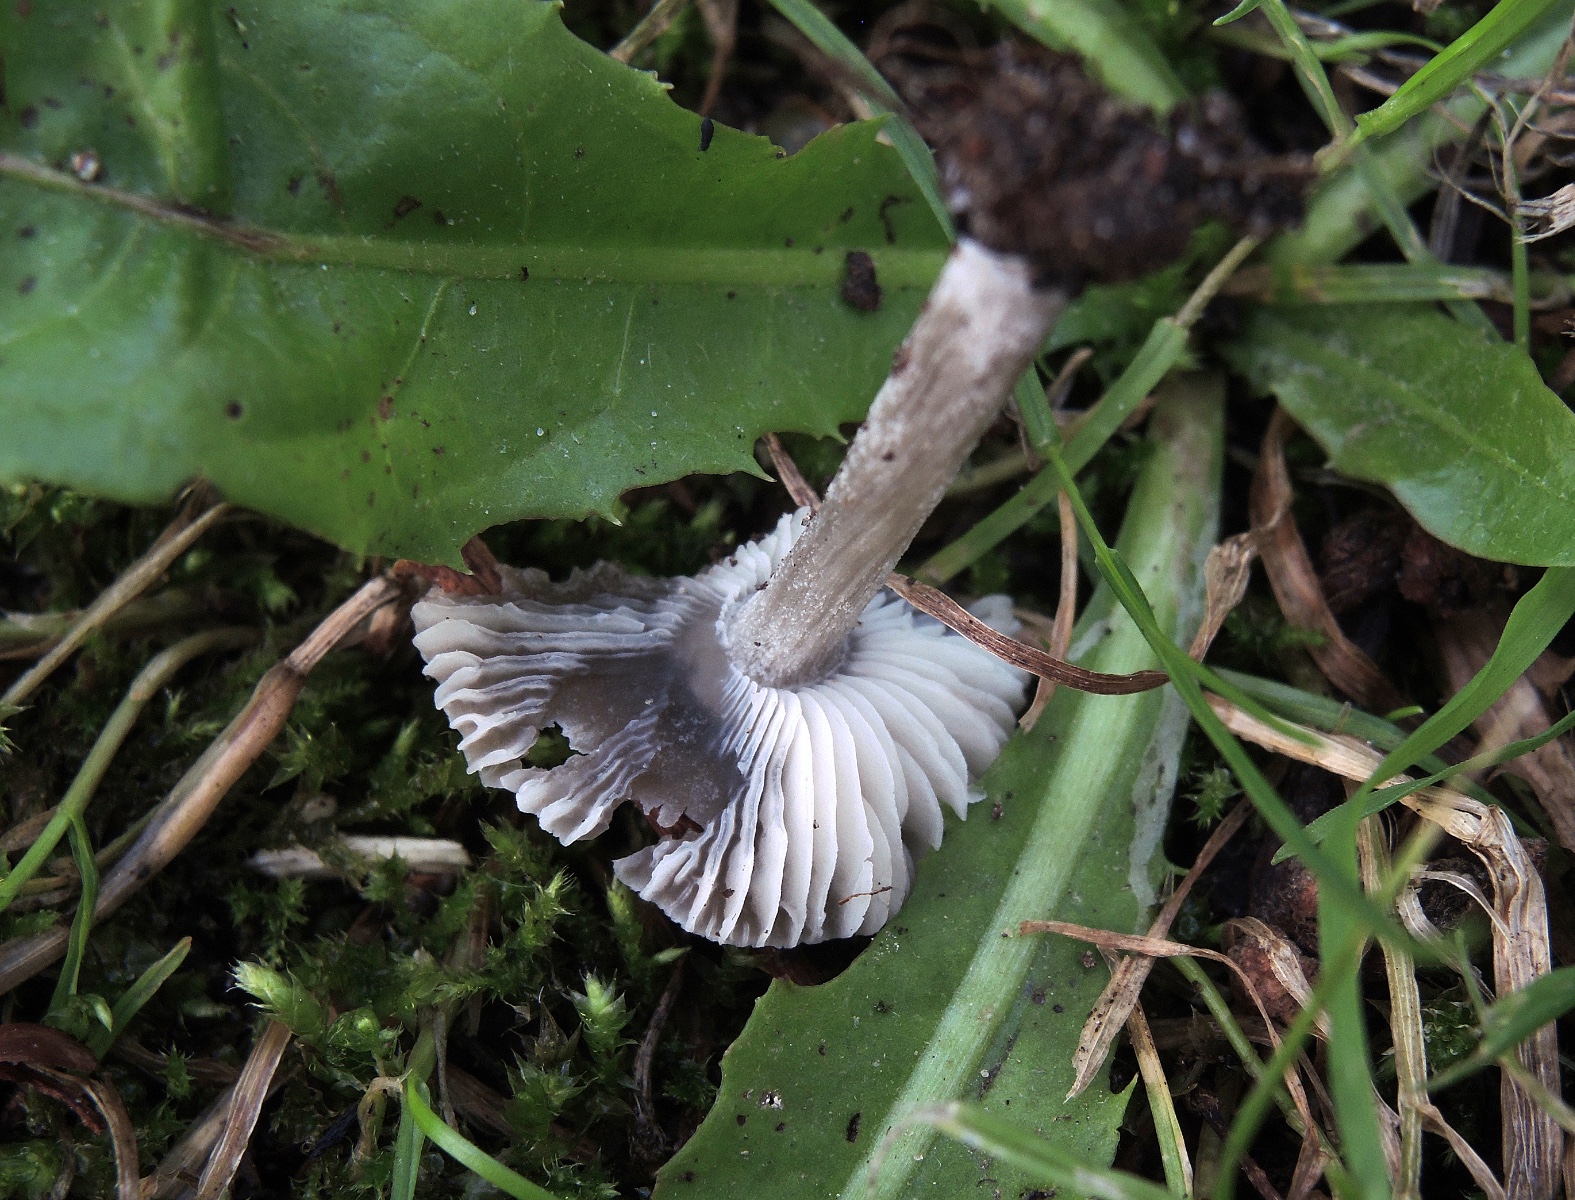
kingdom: Fungi
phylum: Basidiomycota
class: Agaricomycetes
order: Agaricales
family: Pluteaceae
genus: Pluteus
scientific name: Pluteus thomsonii
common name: Veined shield
